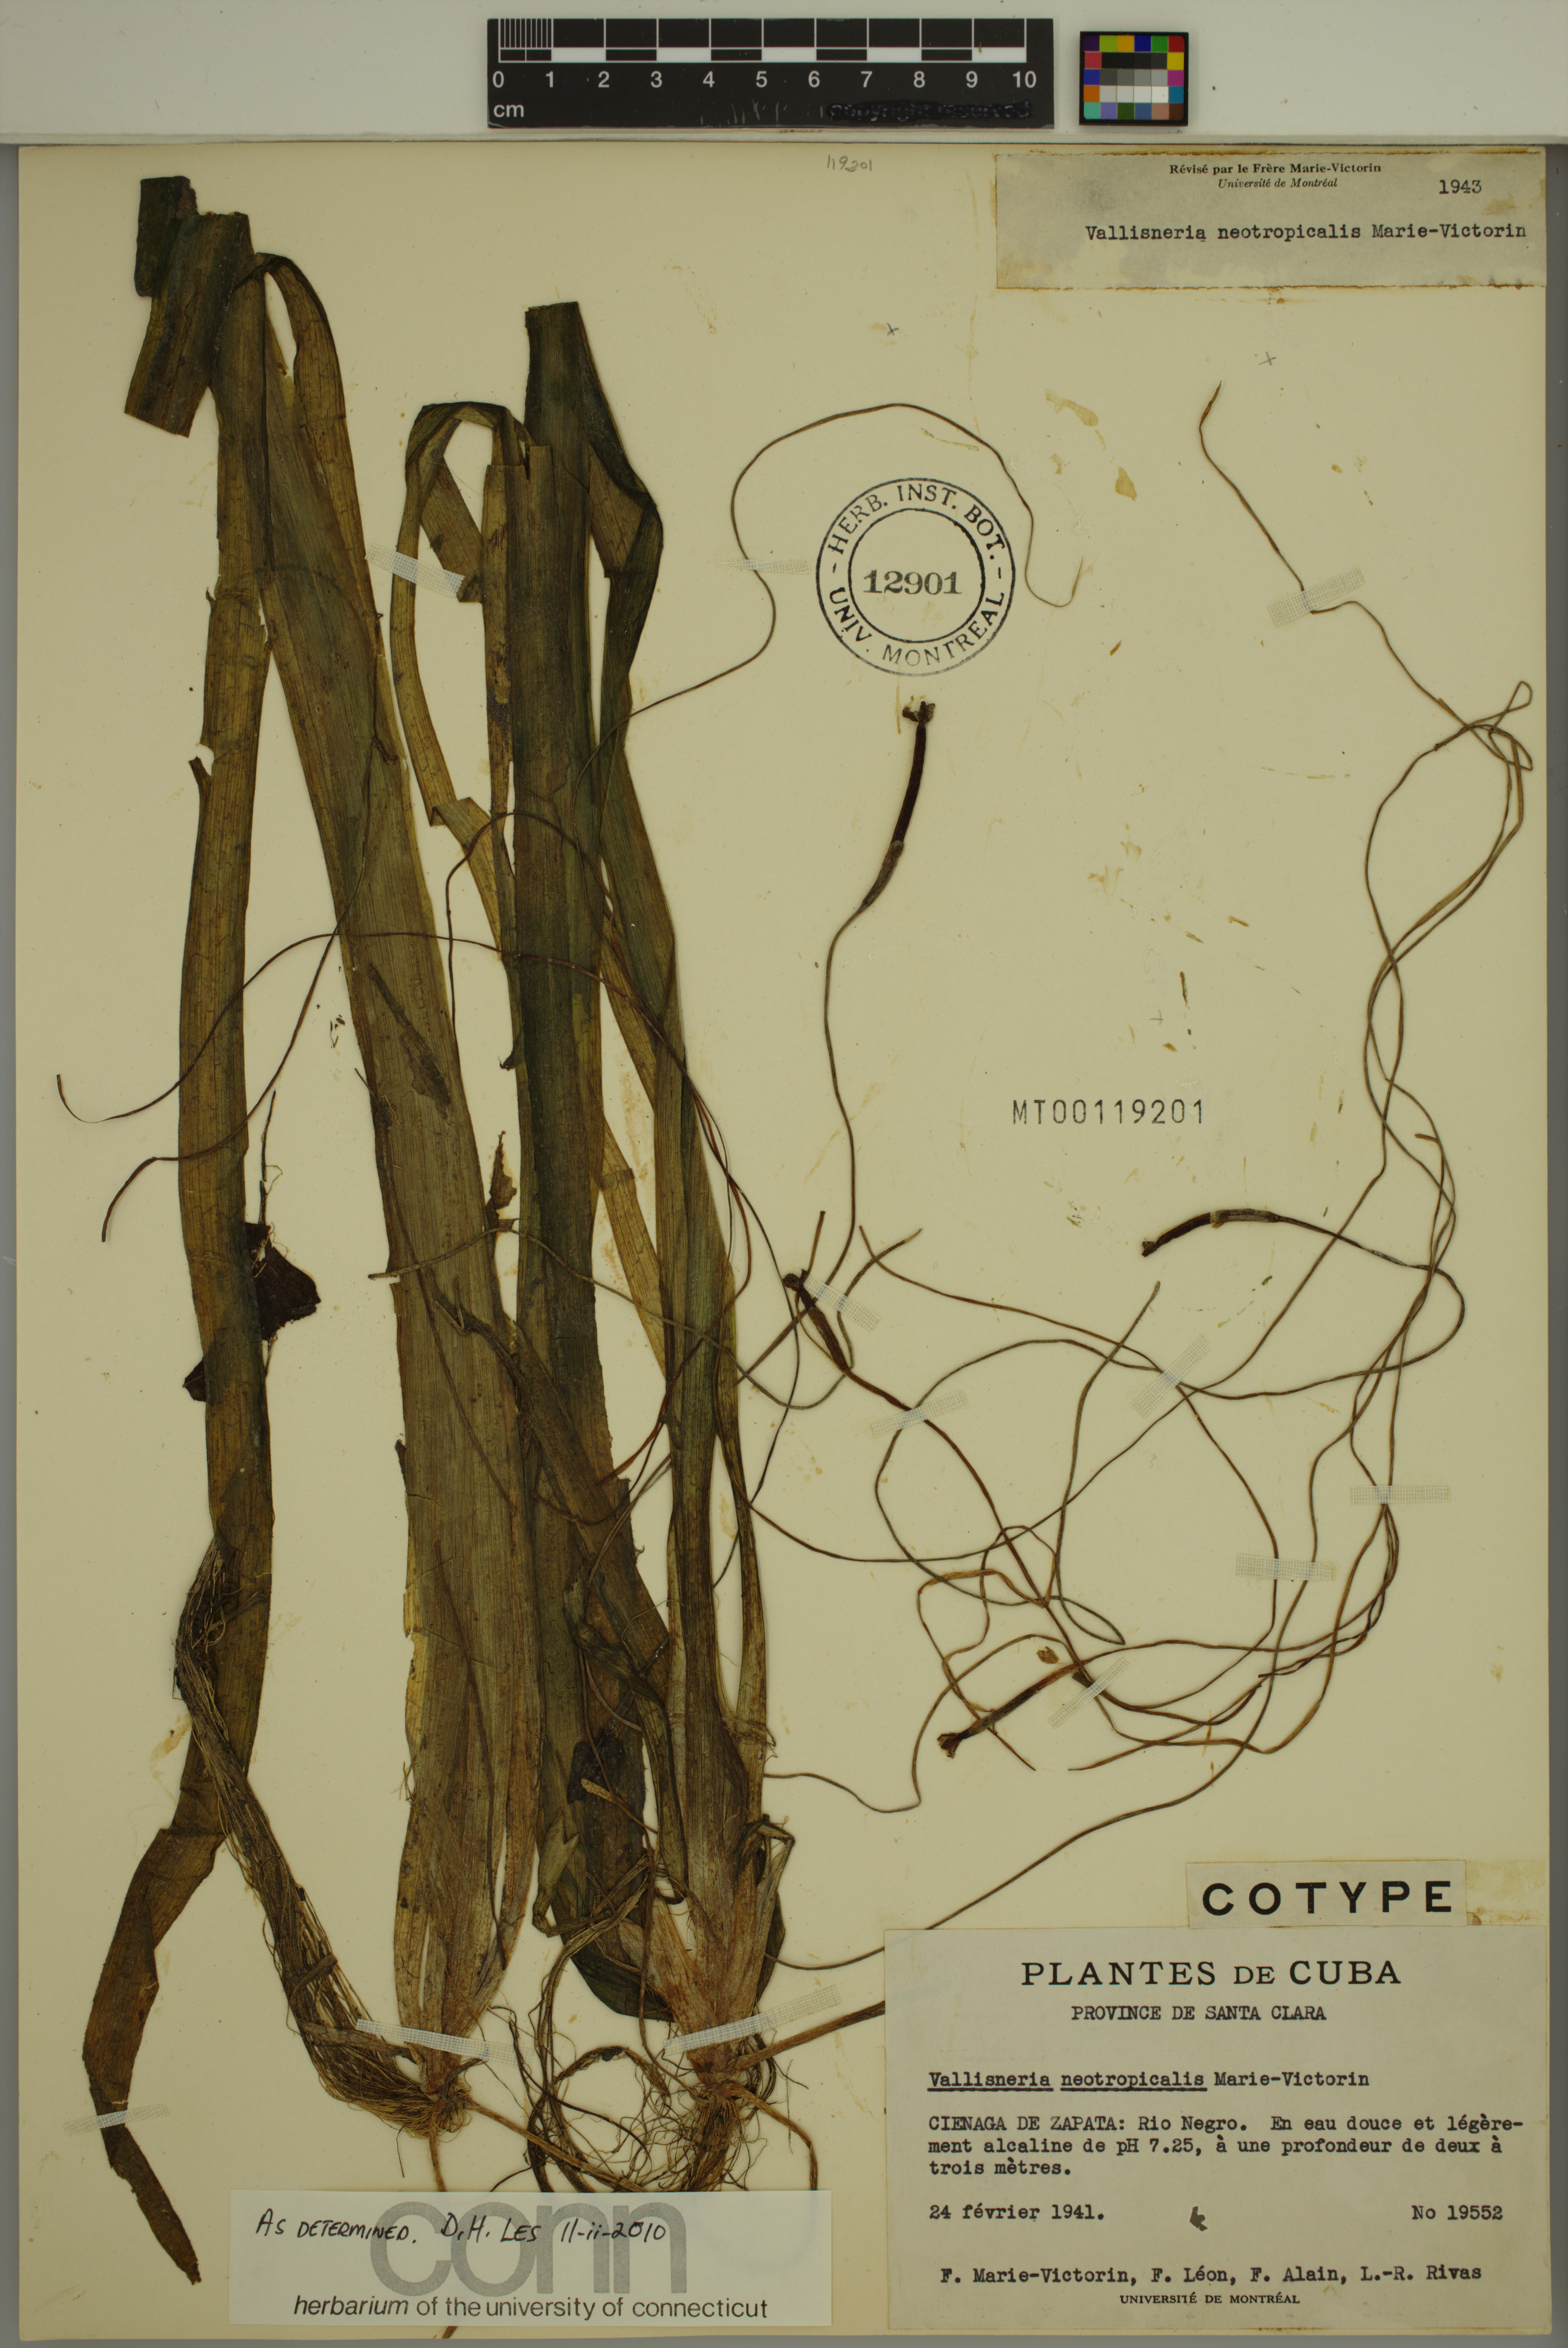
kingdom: Plantae
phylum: Tracheophyta
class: Liliopsida
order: Alismatales
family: Hydrocharitaceae
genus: Vallisneria
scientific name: Vallisneria americana
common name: American eelgrass
